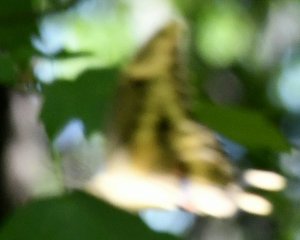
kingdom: Animalia
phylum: Arthropoda
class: Insecta
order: Lepidoptera
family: Papilionidae
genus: Papilio
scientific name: Papilio cresphontes
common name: Eastern Giant Swallowtail
